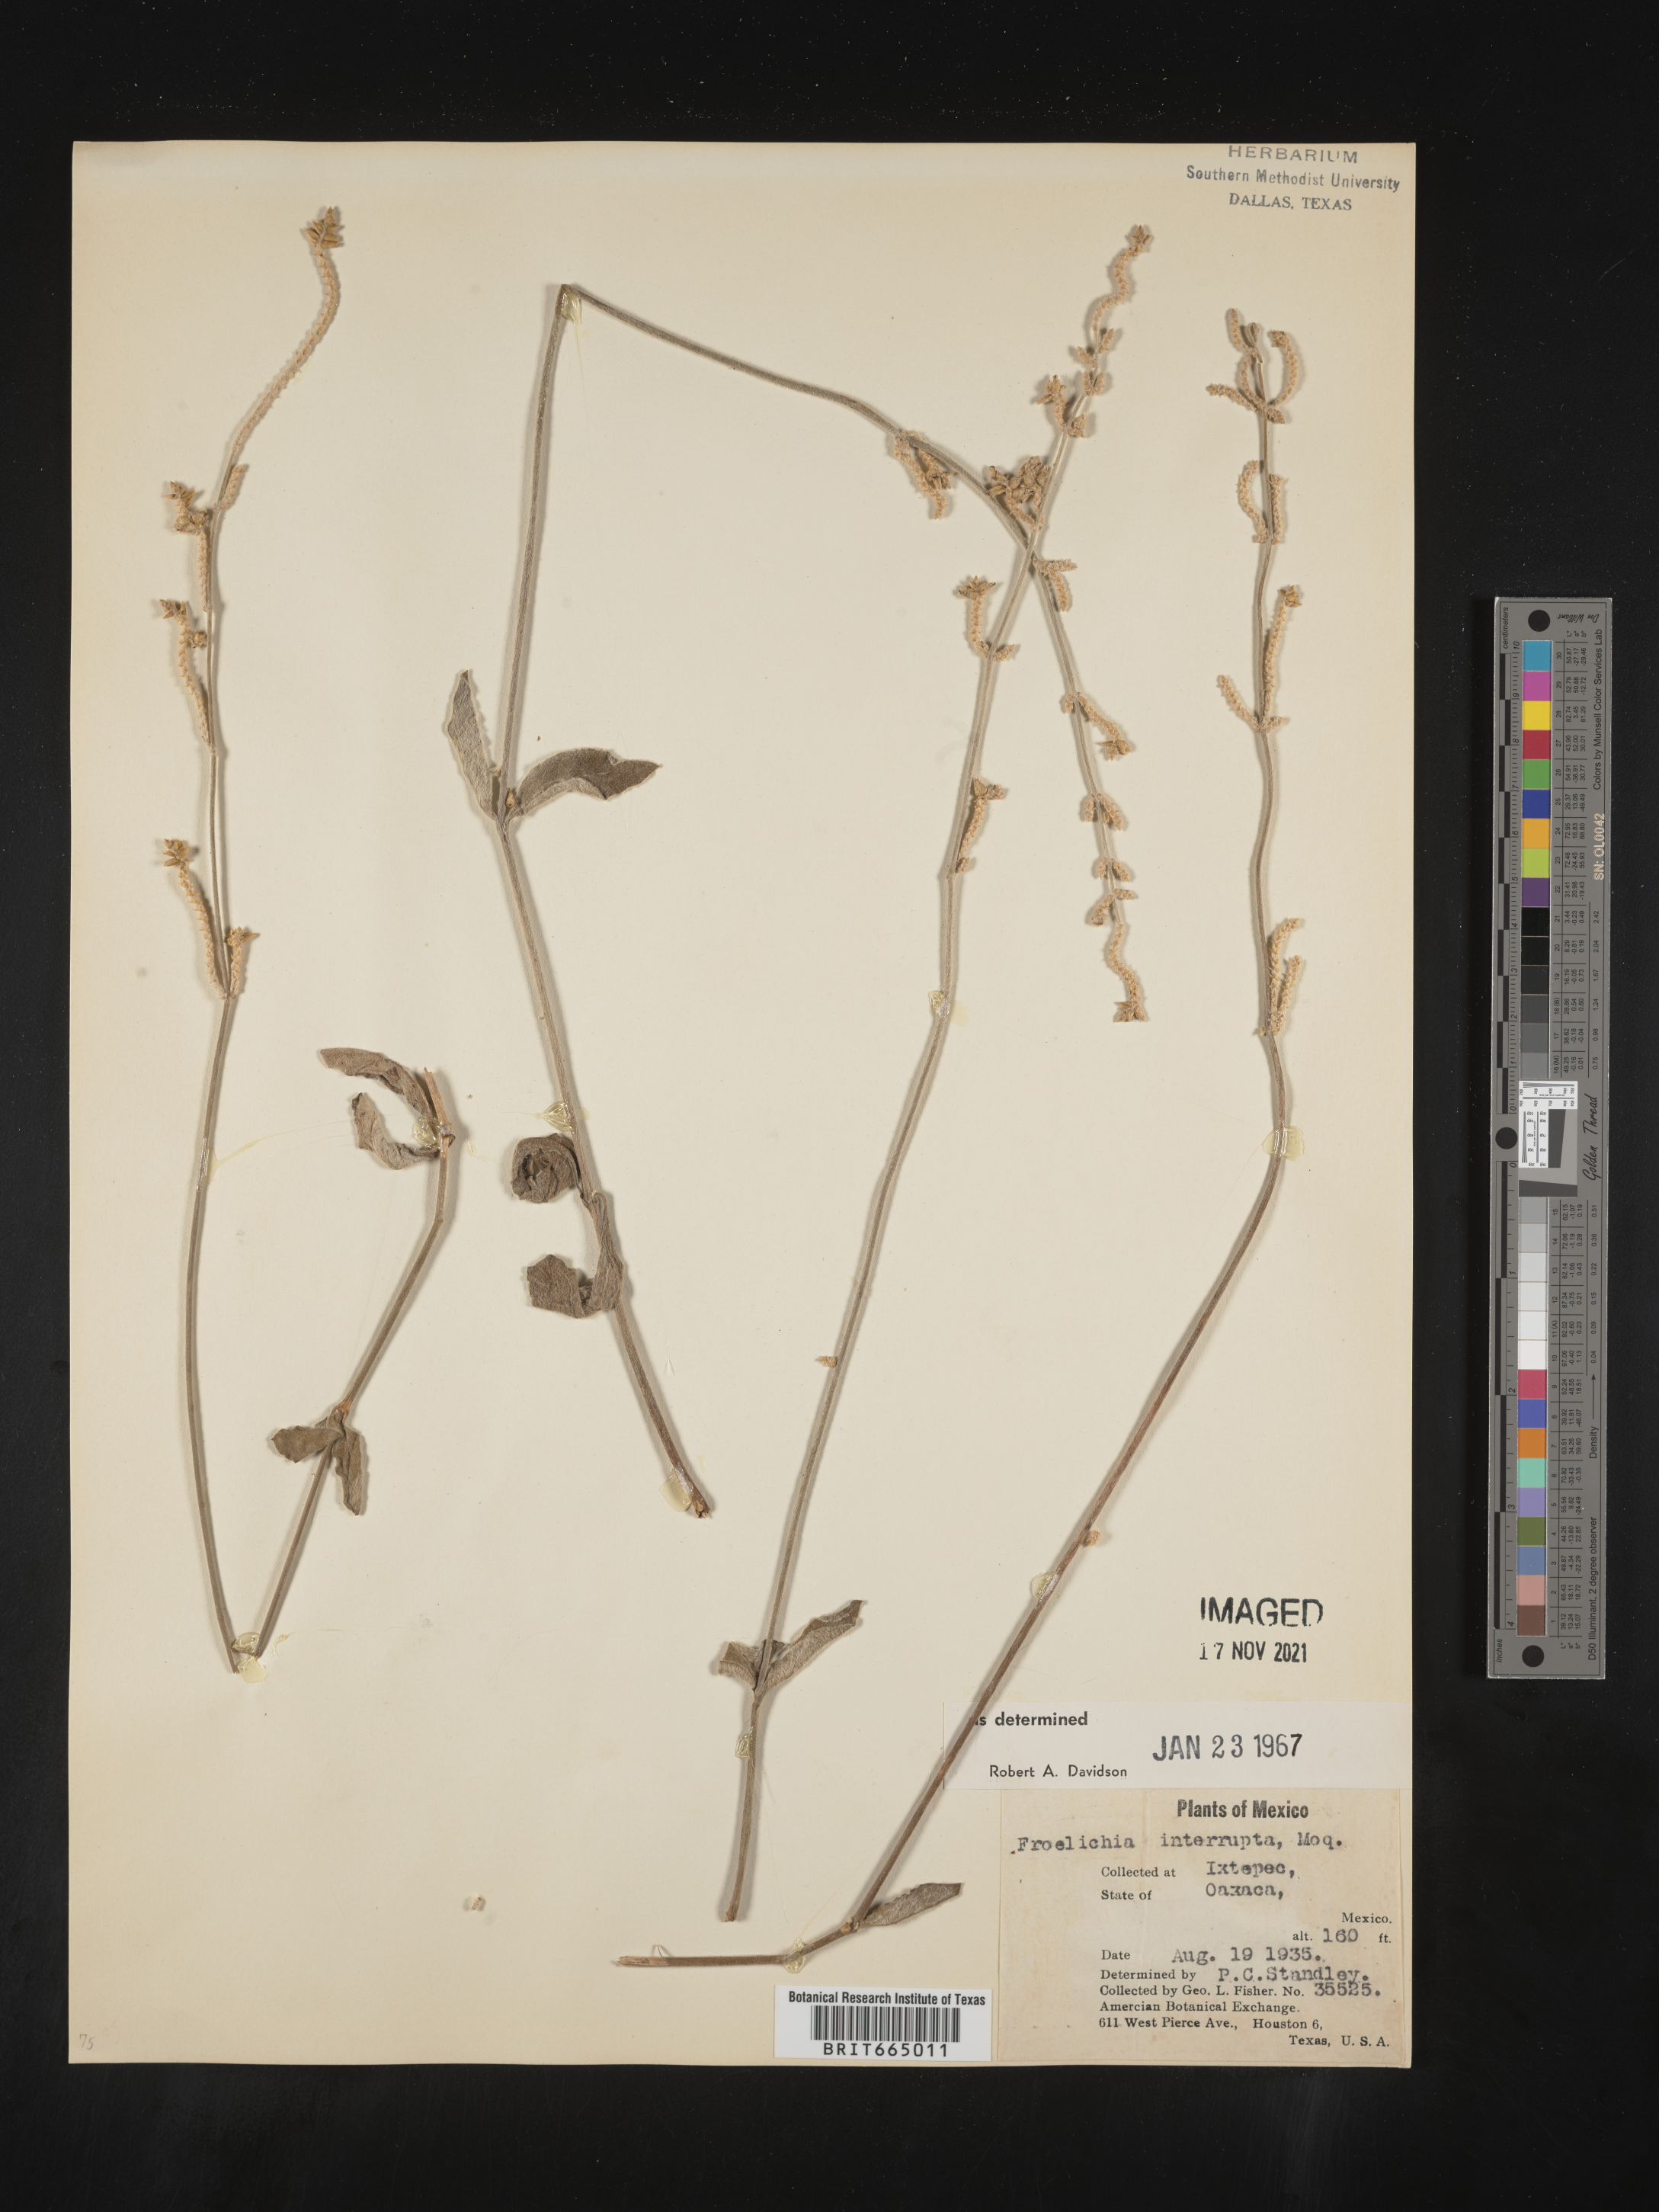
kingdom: Plantae
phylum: Tracheophyta
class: Magnoliopsida
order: Caryophyllales
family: Amaranthaceae
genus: Froelichia
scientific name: Froelichia
